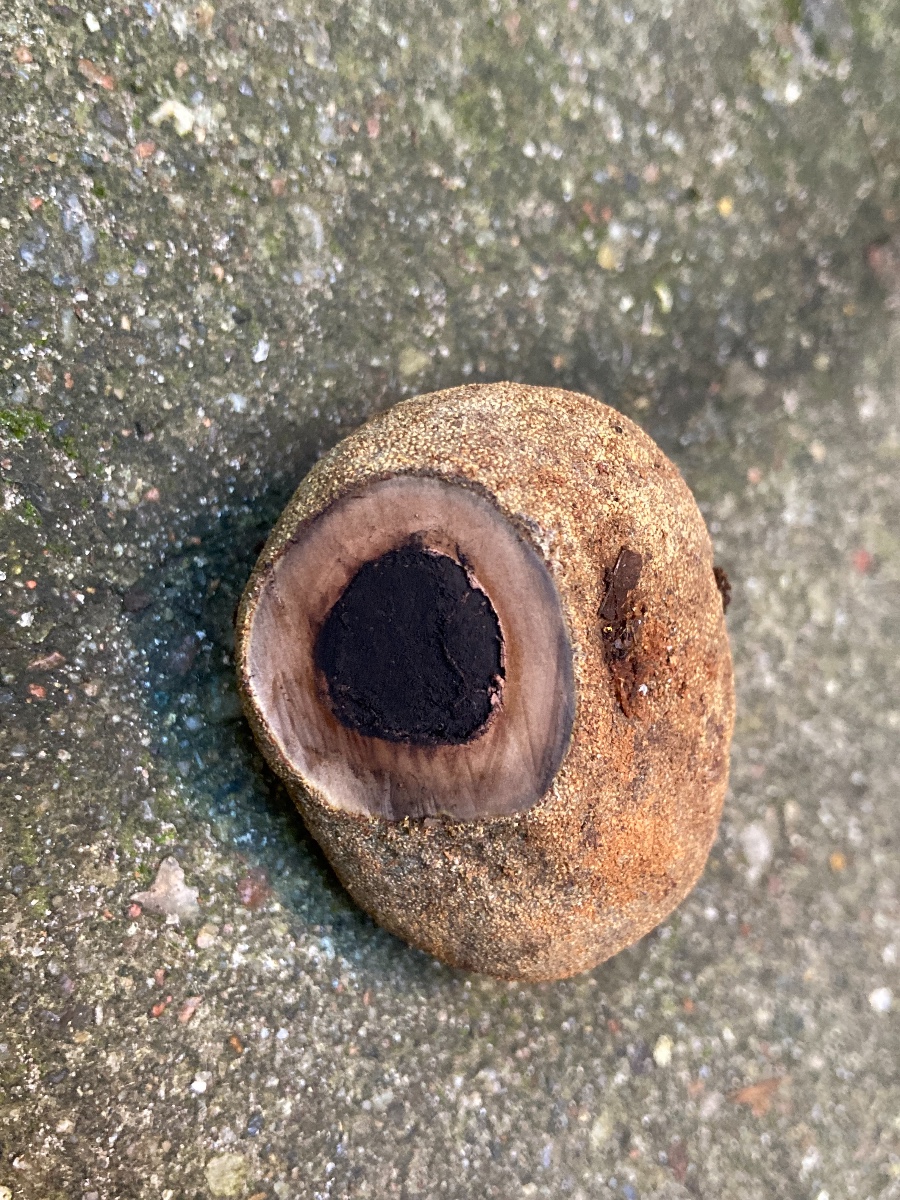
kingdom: Fungi
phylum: Ascomycota
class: Eurotiomycetes
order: Eurotiales
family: Elaphomycetaceae
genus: Elaphomyces
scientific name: Elaphomyces asperulus
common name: vinrød hjortetrøffel
